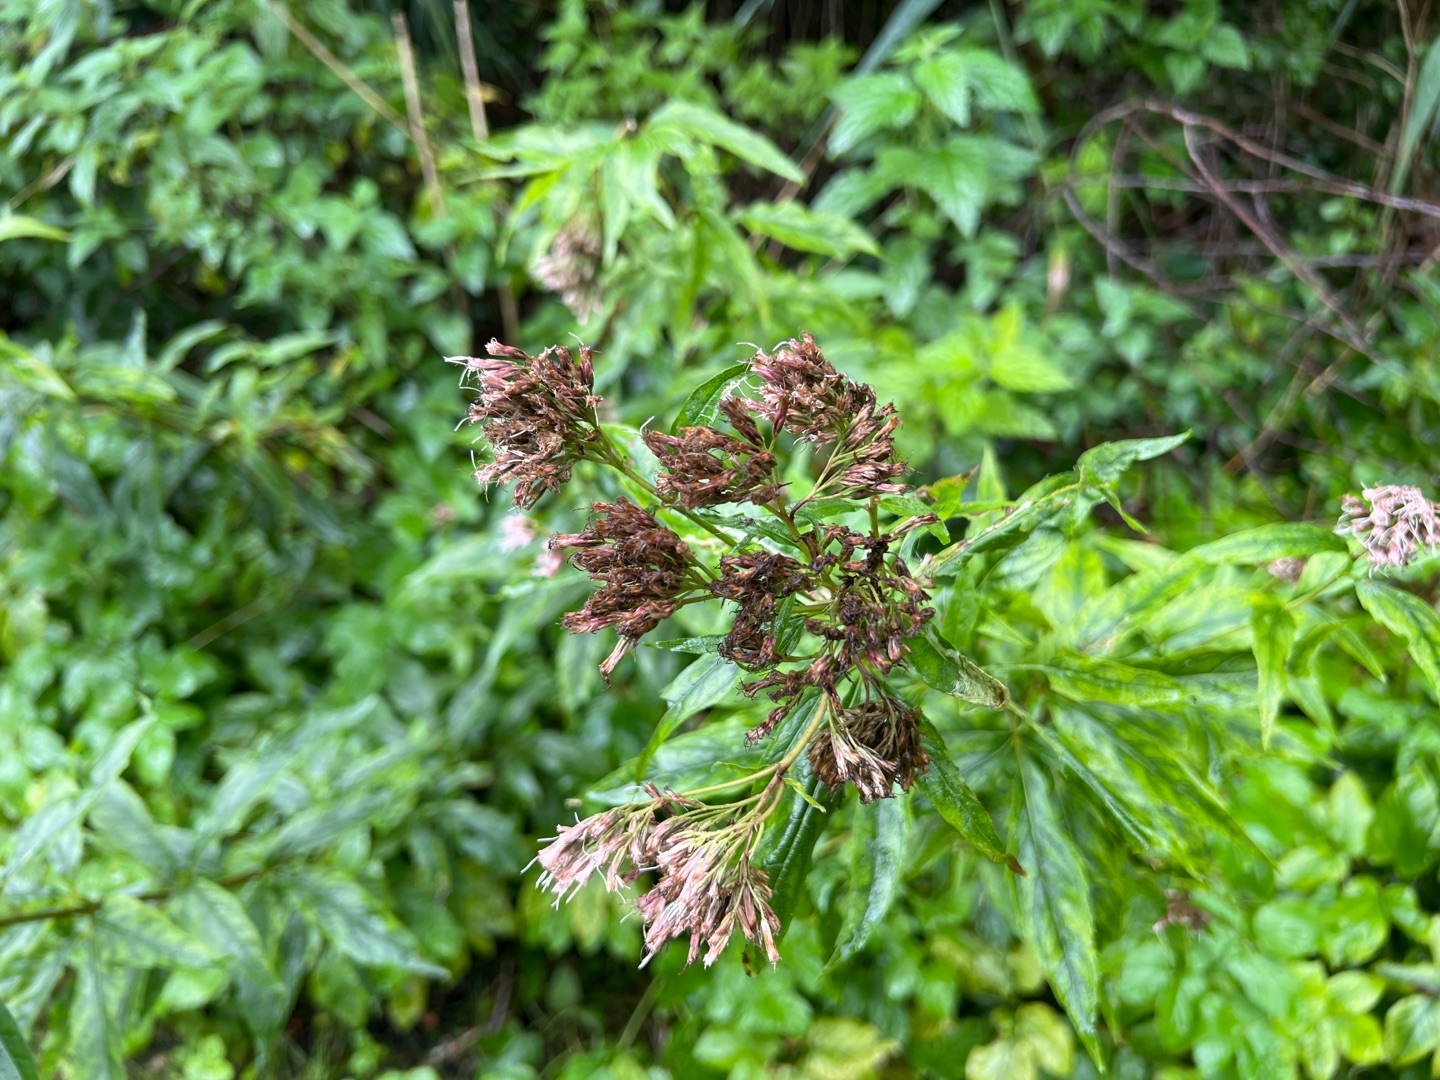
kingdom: Plantae
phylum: Tracheophyta
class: Magnoliopsida
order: Asterales
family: Asteraceae
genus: Eupatorium
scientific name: Eupatorium cannabinum
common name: Hjortetrøst
